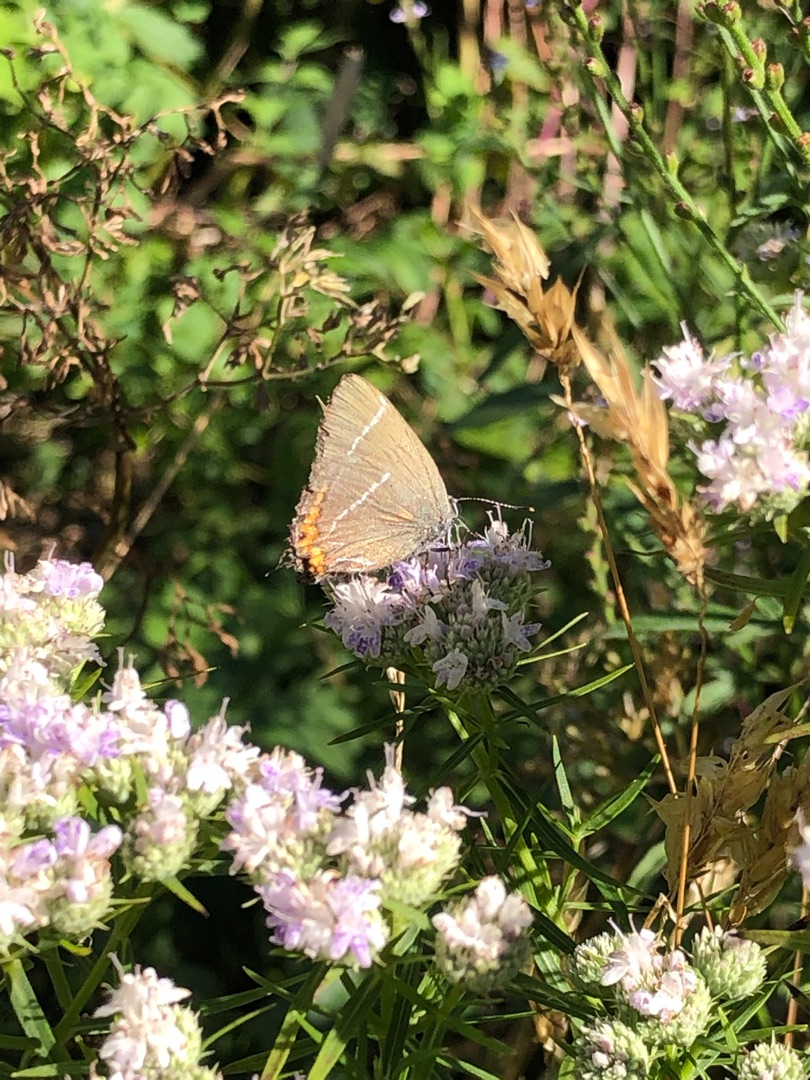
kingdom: Animalia
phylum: Arthropoda
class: Insecta
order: Lepidoptera
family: Lycaenidae
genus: Satyrium
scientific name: Satyrium w-album
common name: Det hvide W
